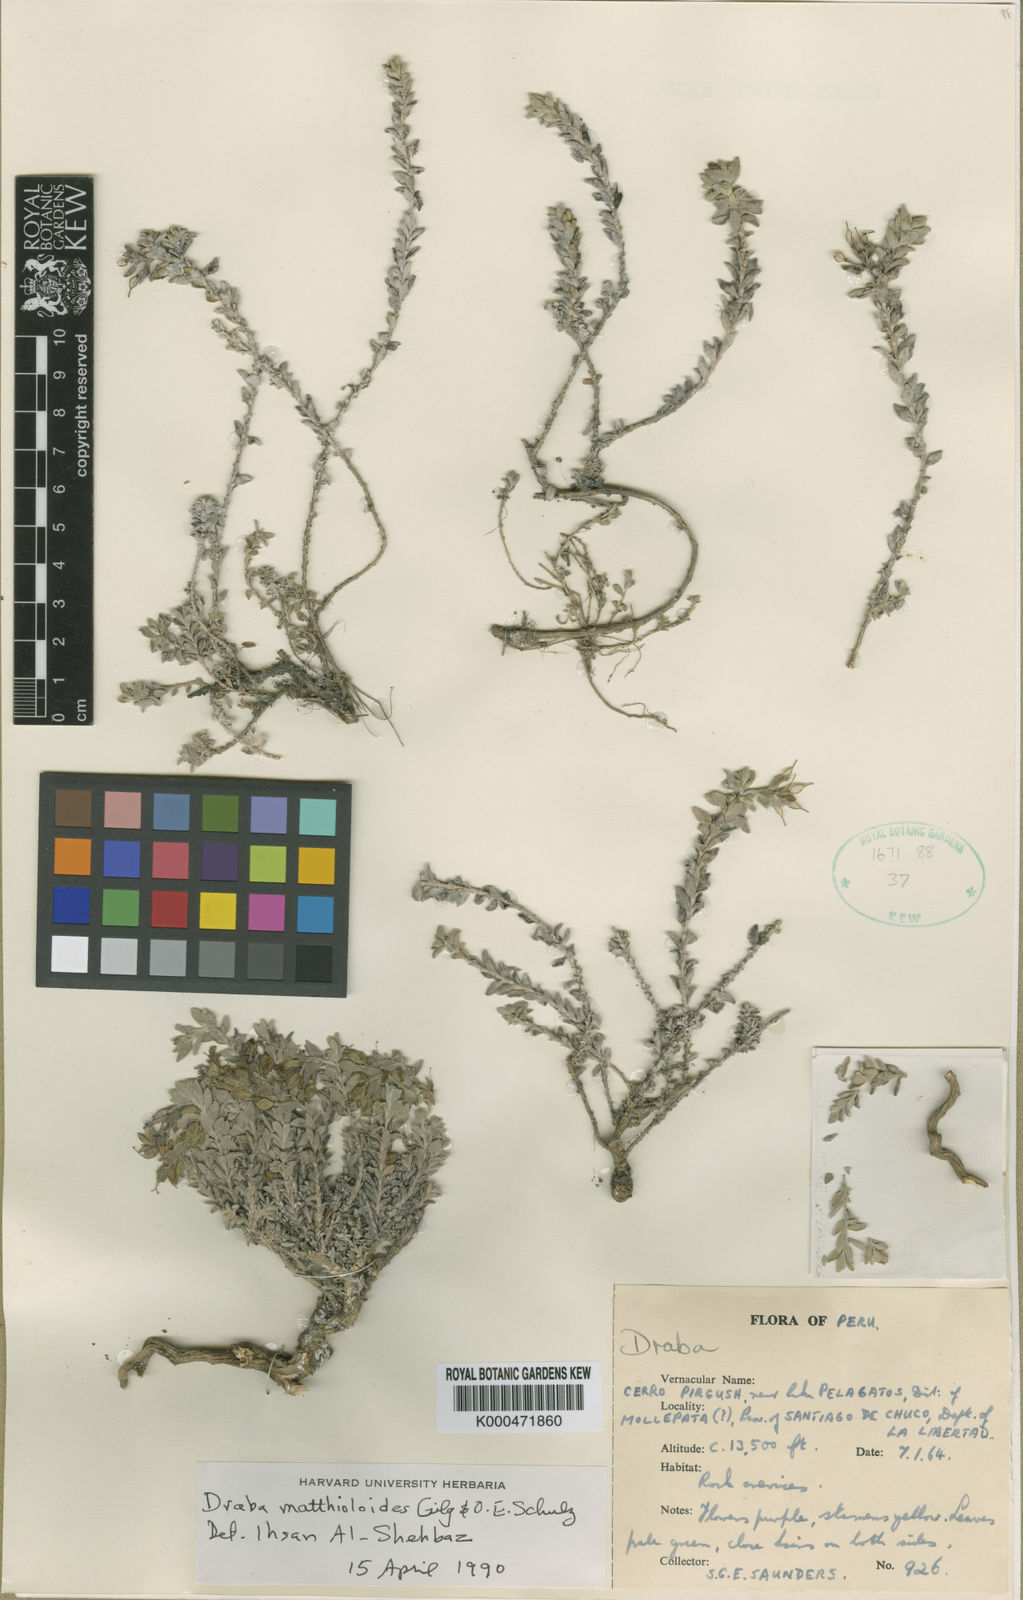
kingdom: Plantae
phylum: Tracheophyta
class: Magnoliopsida
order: Brassicales
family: Brassicaceae
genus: Draba
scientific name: Draba matthioloides
